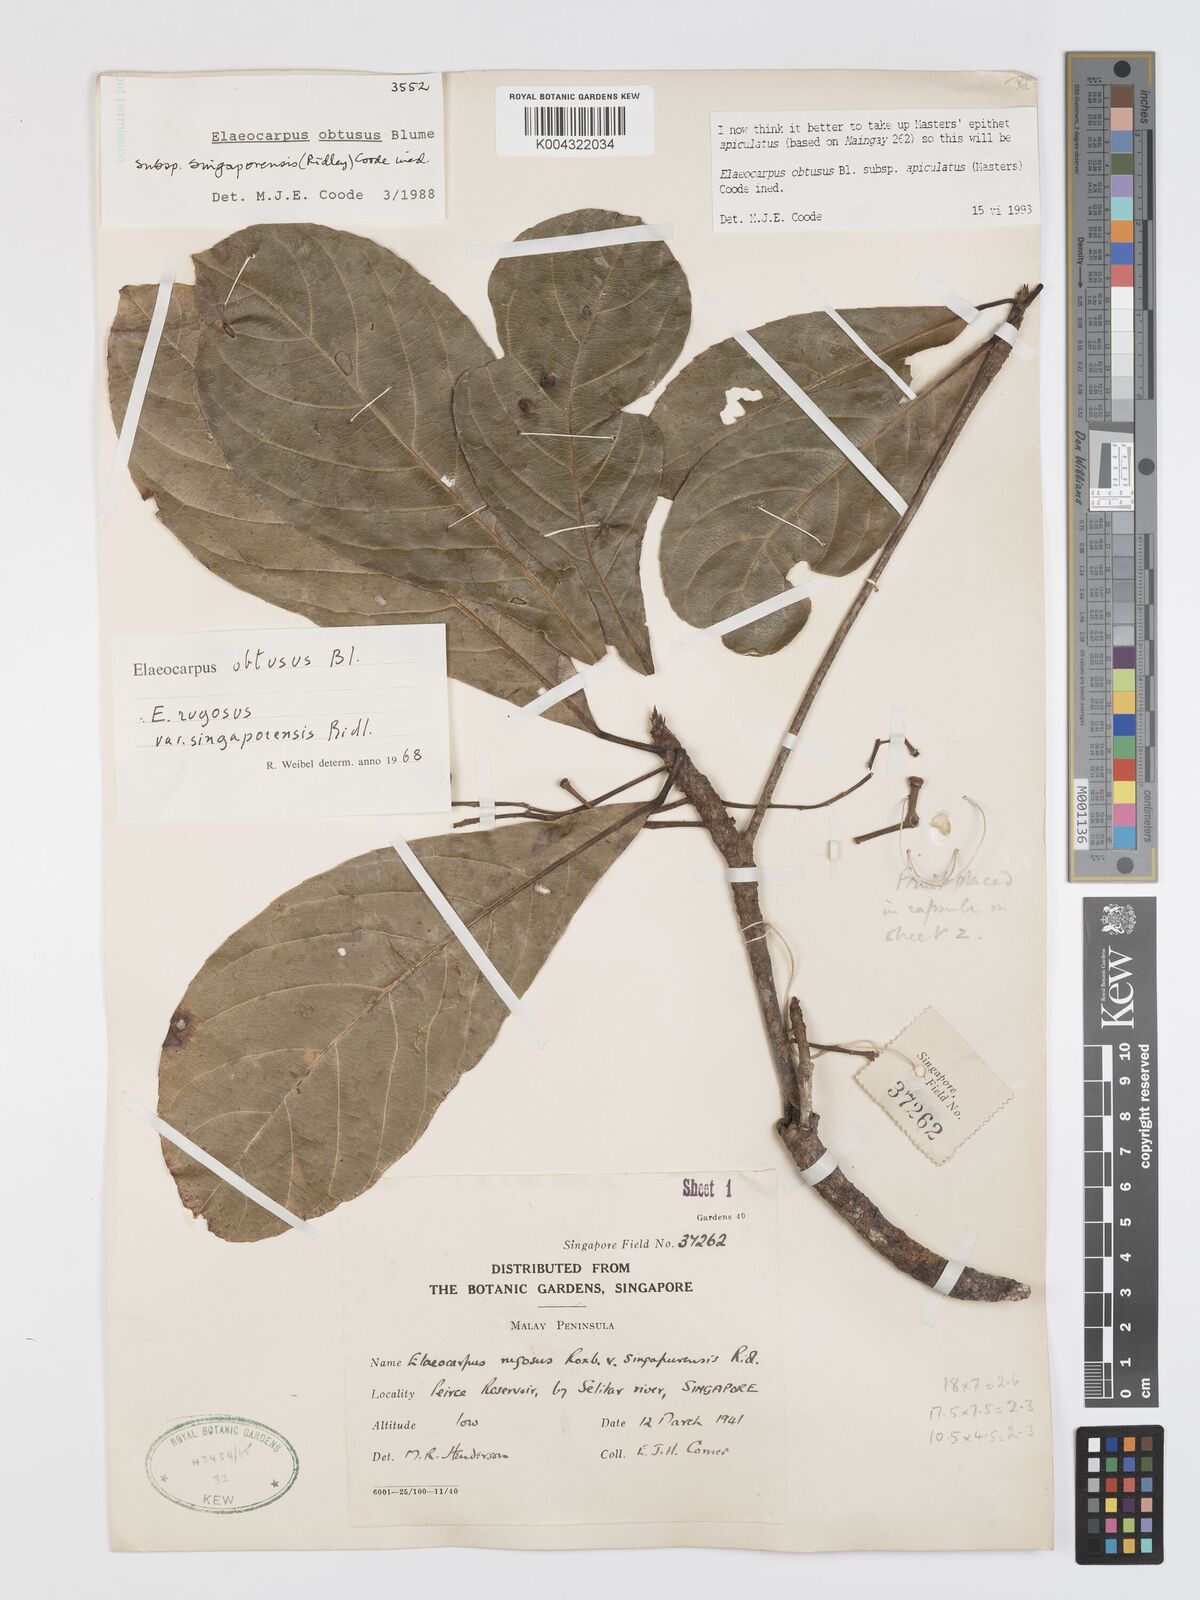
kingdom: Plantae
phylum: Tracheophyta
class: Magnoliopsida
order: Oxalidales
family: Elaeocarpaceae
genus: Elaeocarpus
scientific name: Elaeocarpus obtusus
